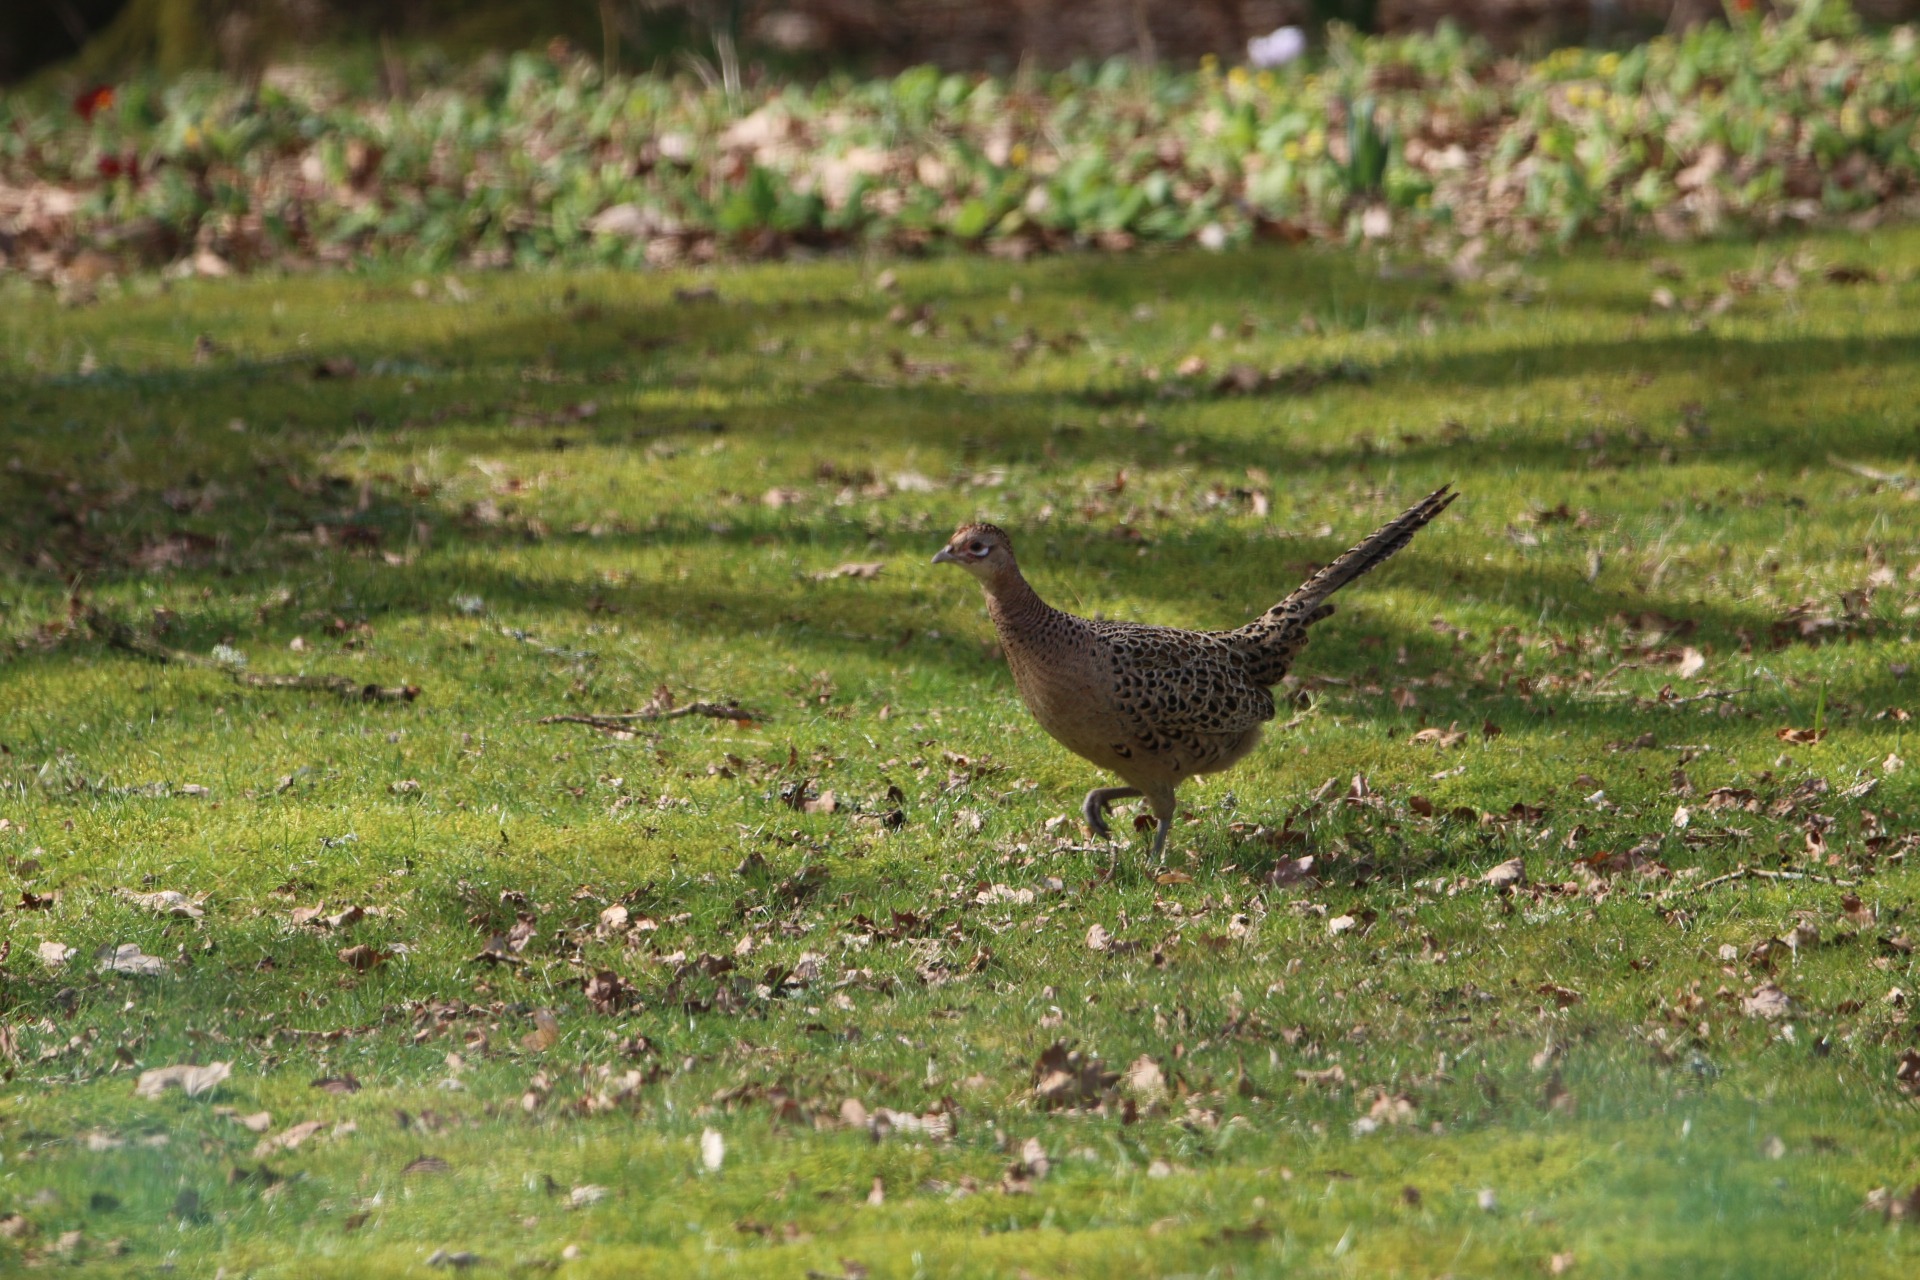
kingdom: Animalia
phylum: Chordata
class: Aves
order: Galliformes
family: Phasianidae
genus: Phasianus
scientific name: Phasianus colchicus
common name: Fasan
